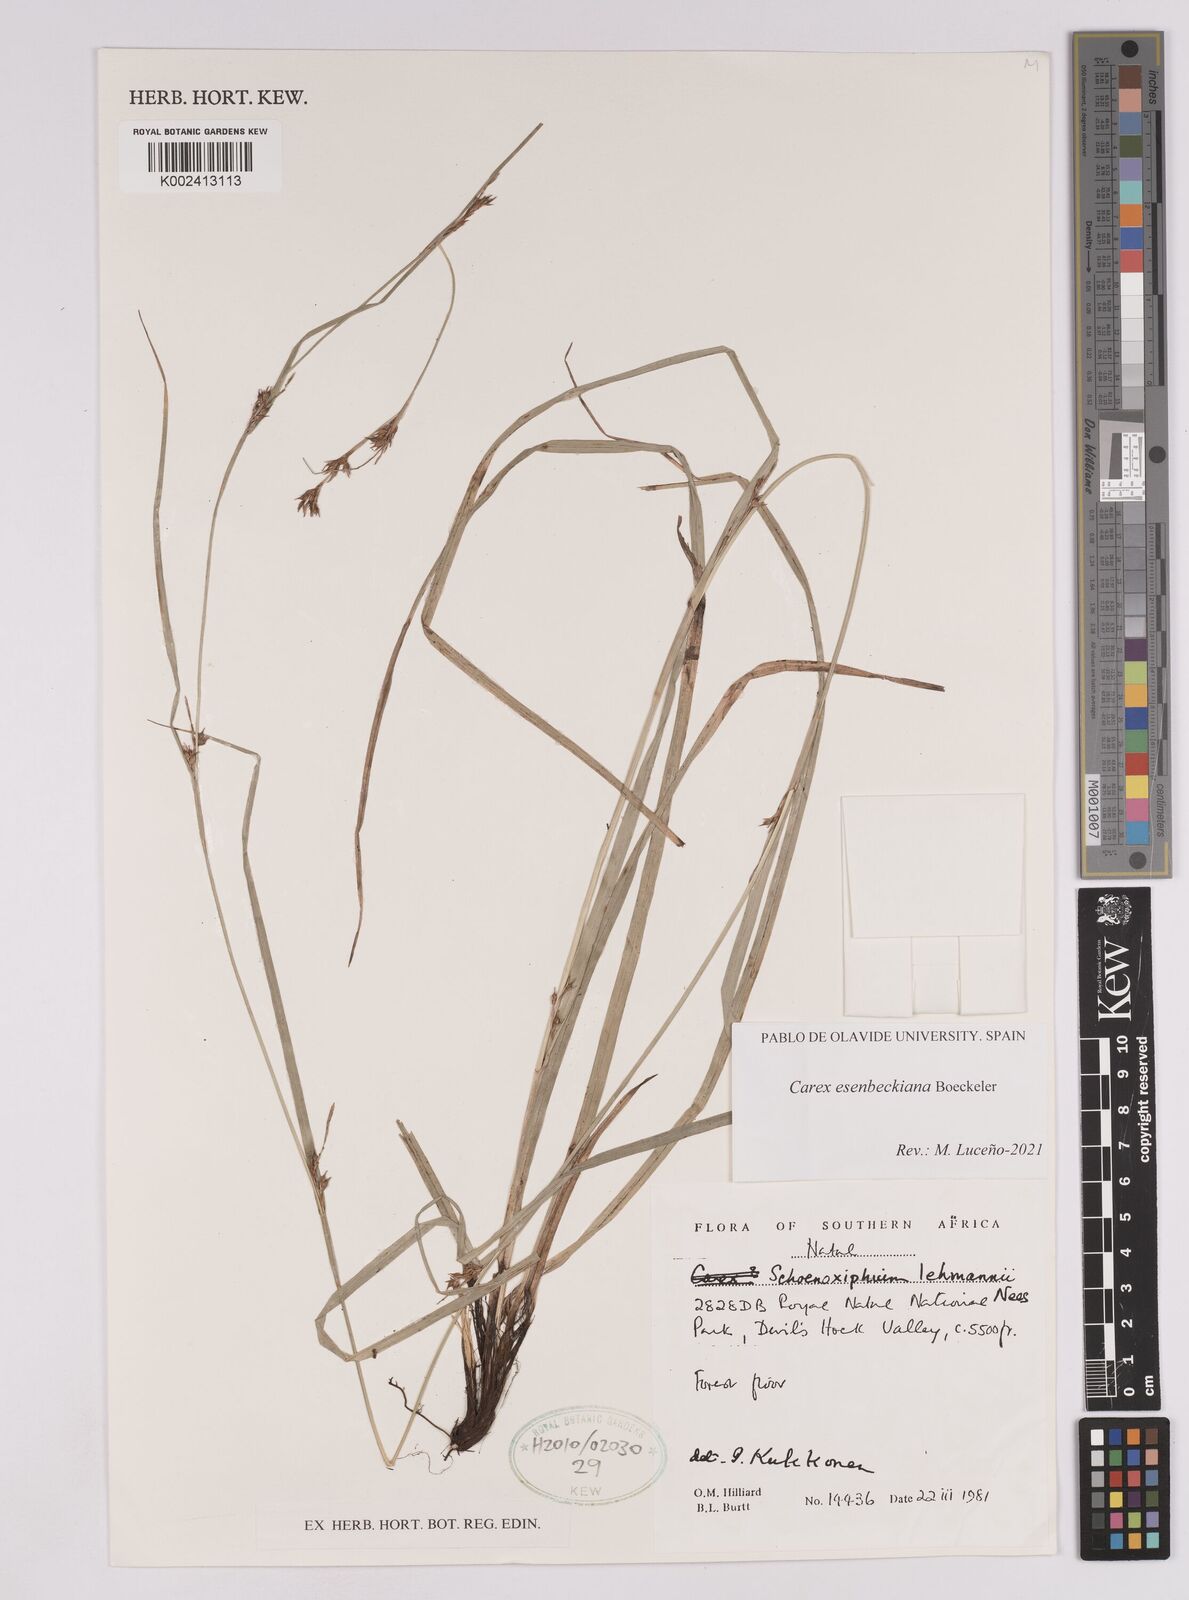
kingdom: Plantae
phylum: Tracheophyta
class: Liliopsida
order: Poales
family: Cyperaceae
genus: Carex
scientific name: Carex kukkoneniana
